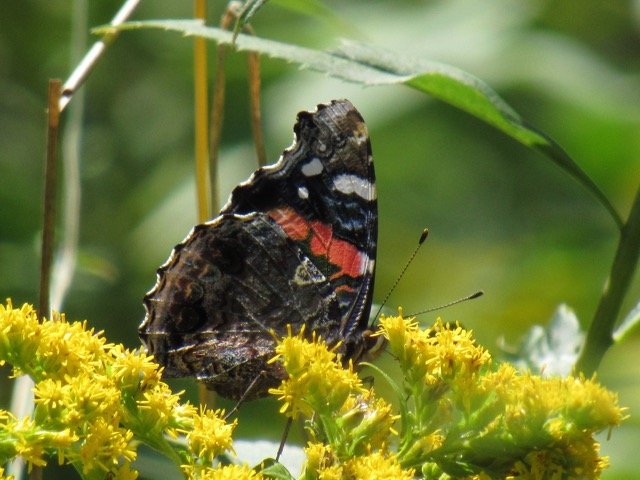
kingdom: Animalia
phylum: Arthropoda
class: Insecta
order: Lepidoptera
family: Nymphalidae
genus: Vanessa
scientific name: Vanessa atalanta
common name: Red Admiral
